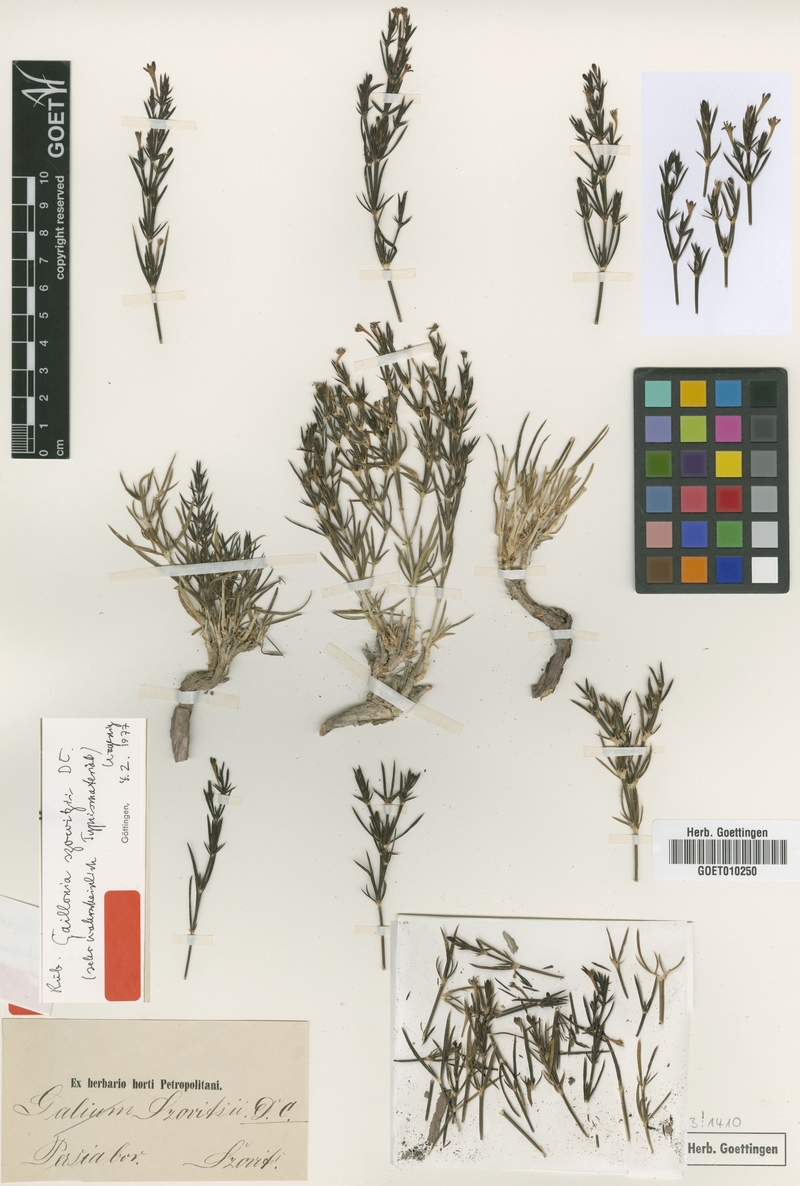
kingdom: Plantae
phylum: Tracheophyta
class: Magnoliopsida
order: Gentianales
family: Rubiaceae
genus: Plocama
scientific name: Plocama szowitzii
